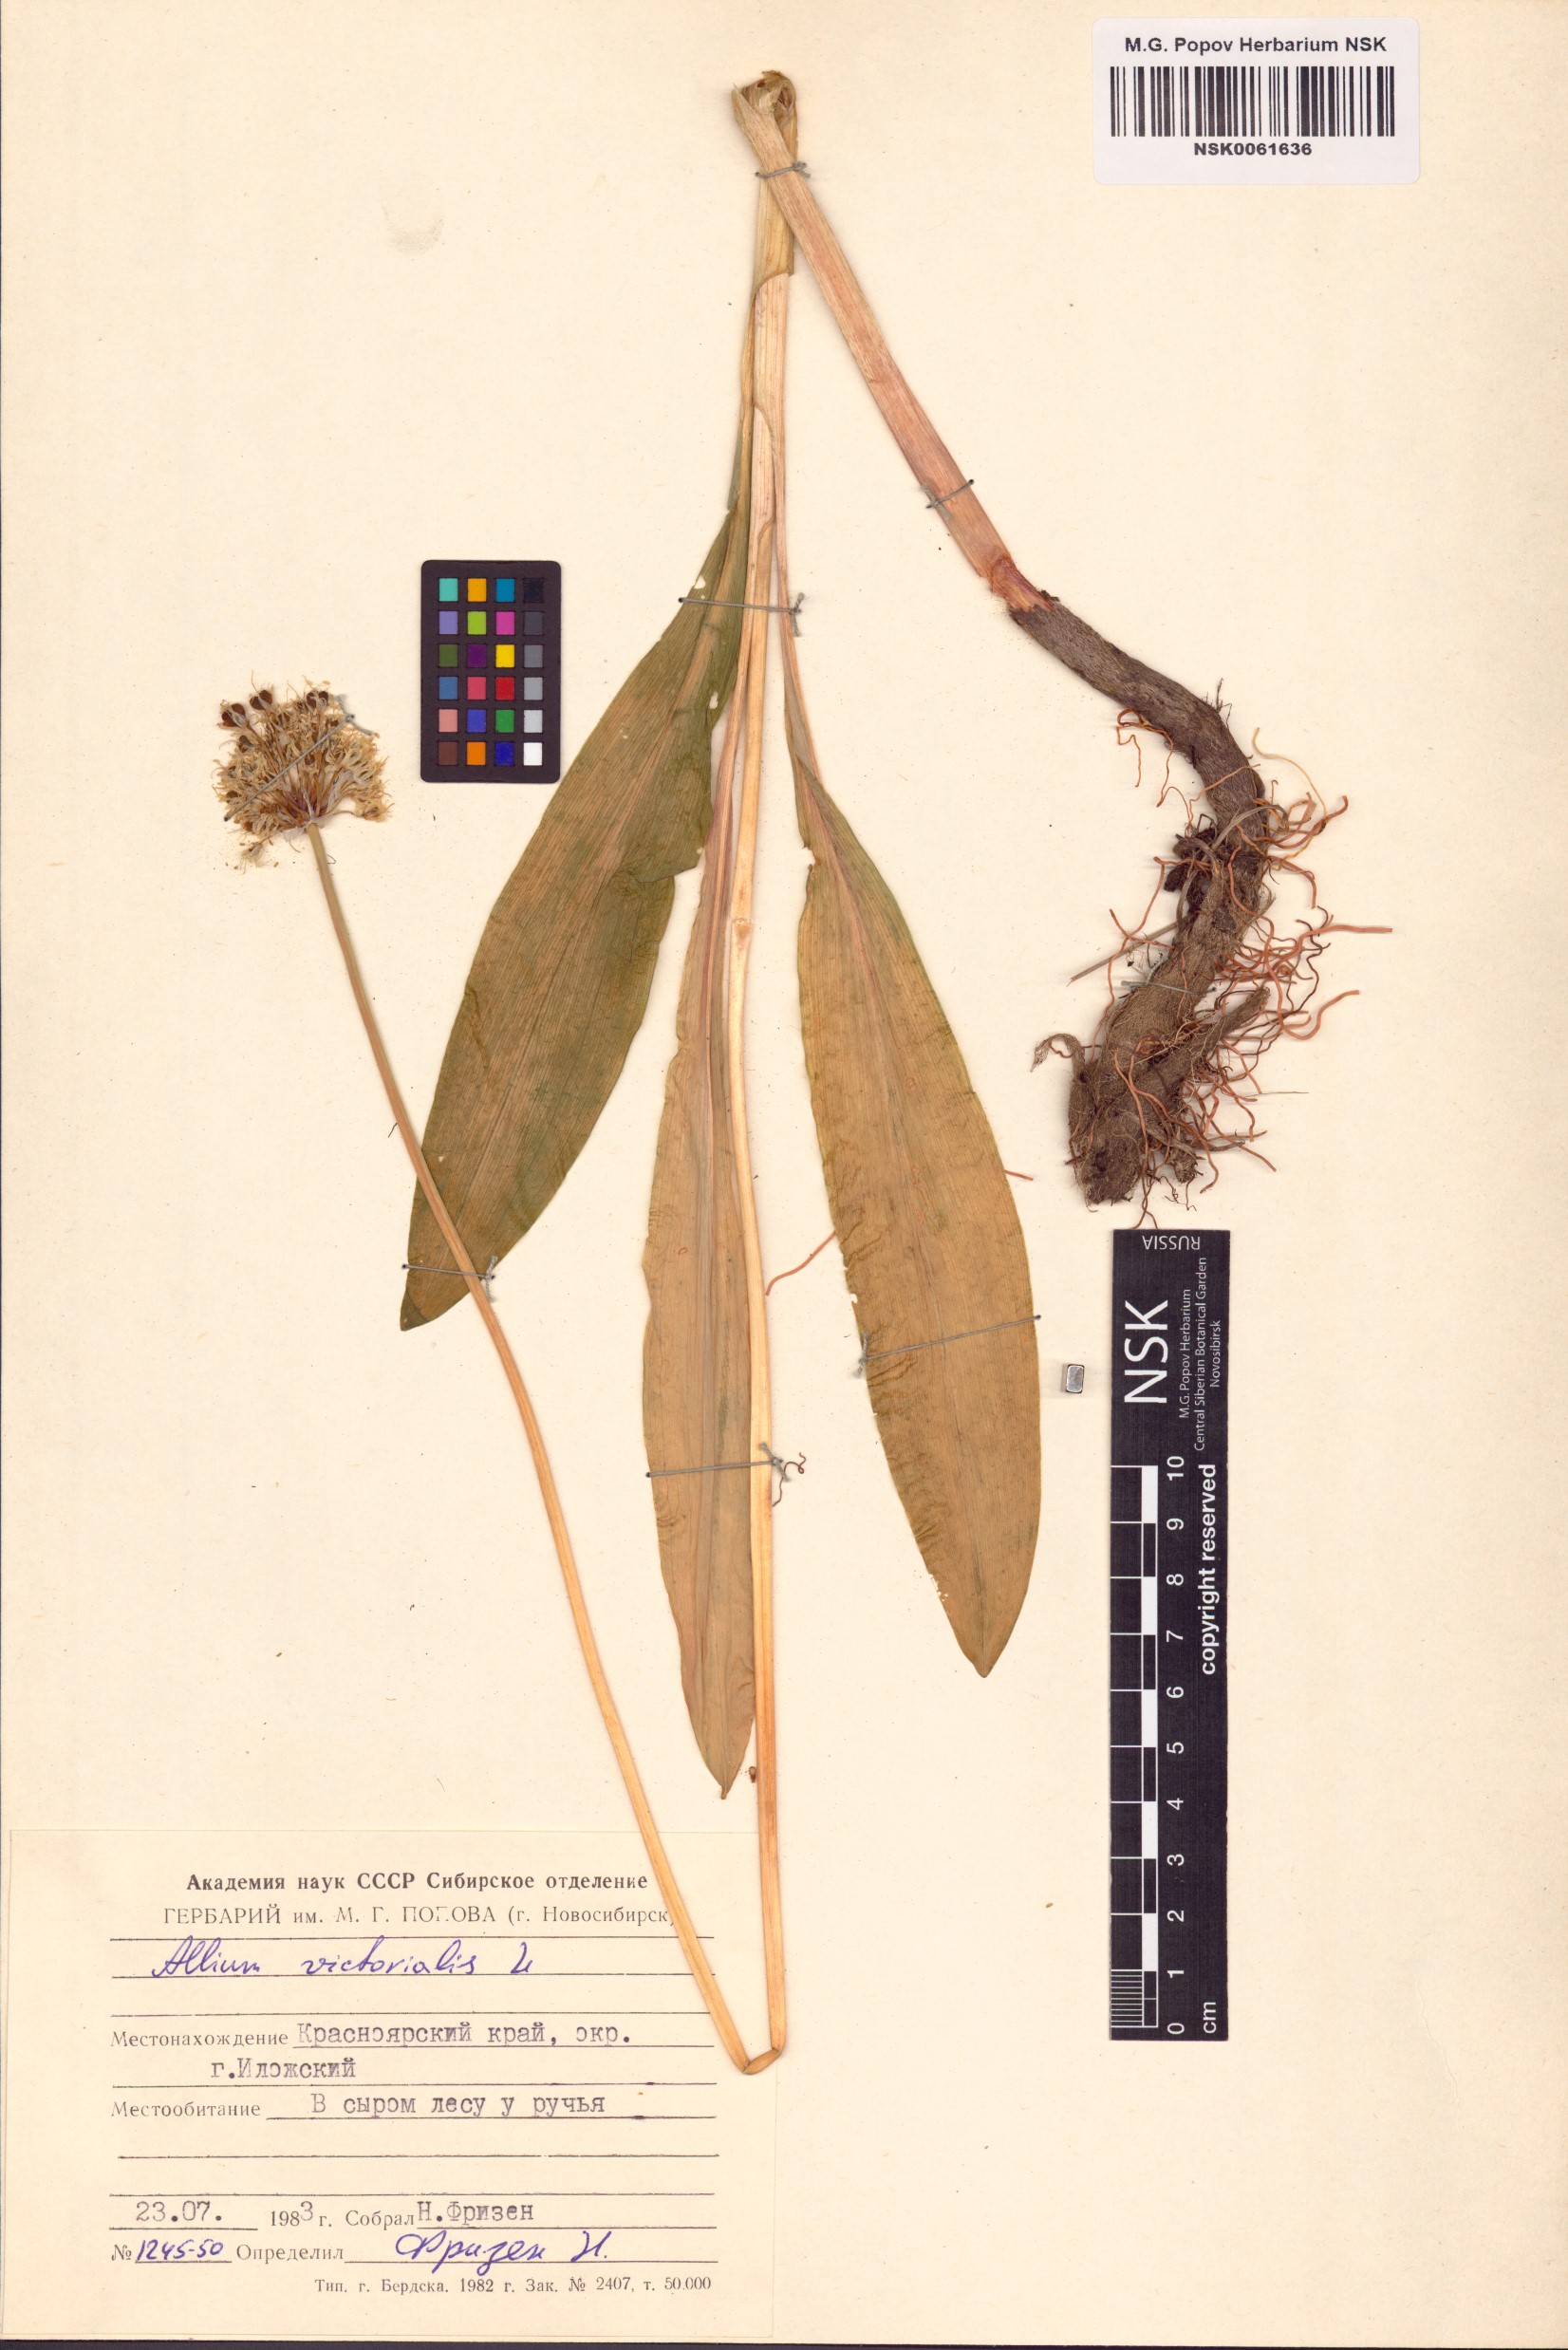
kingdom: Plantae
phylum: Tracheophyta
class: Liliopsida
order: Asparagales
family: Amaryllidaceae
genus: Allium
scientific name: Allium victorialis
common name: Alpine leek
